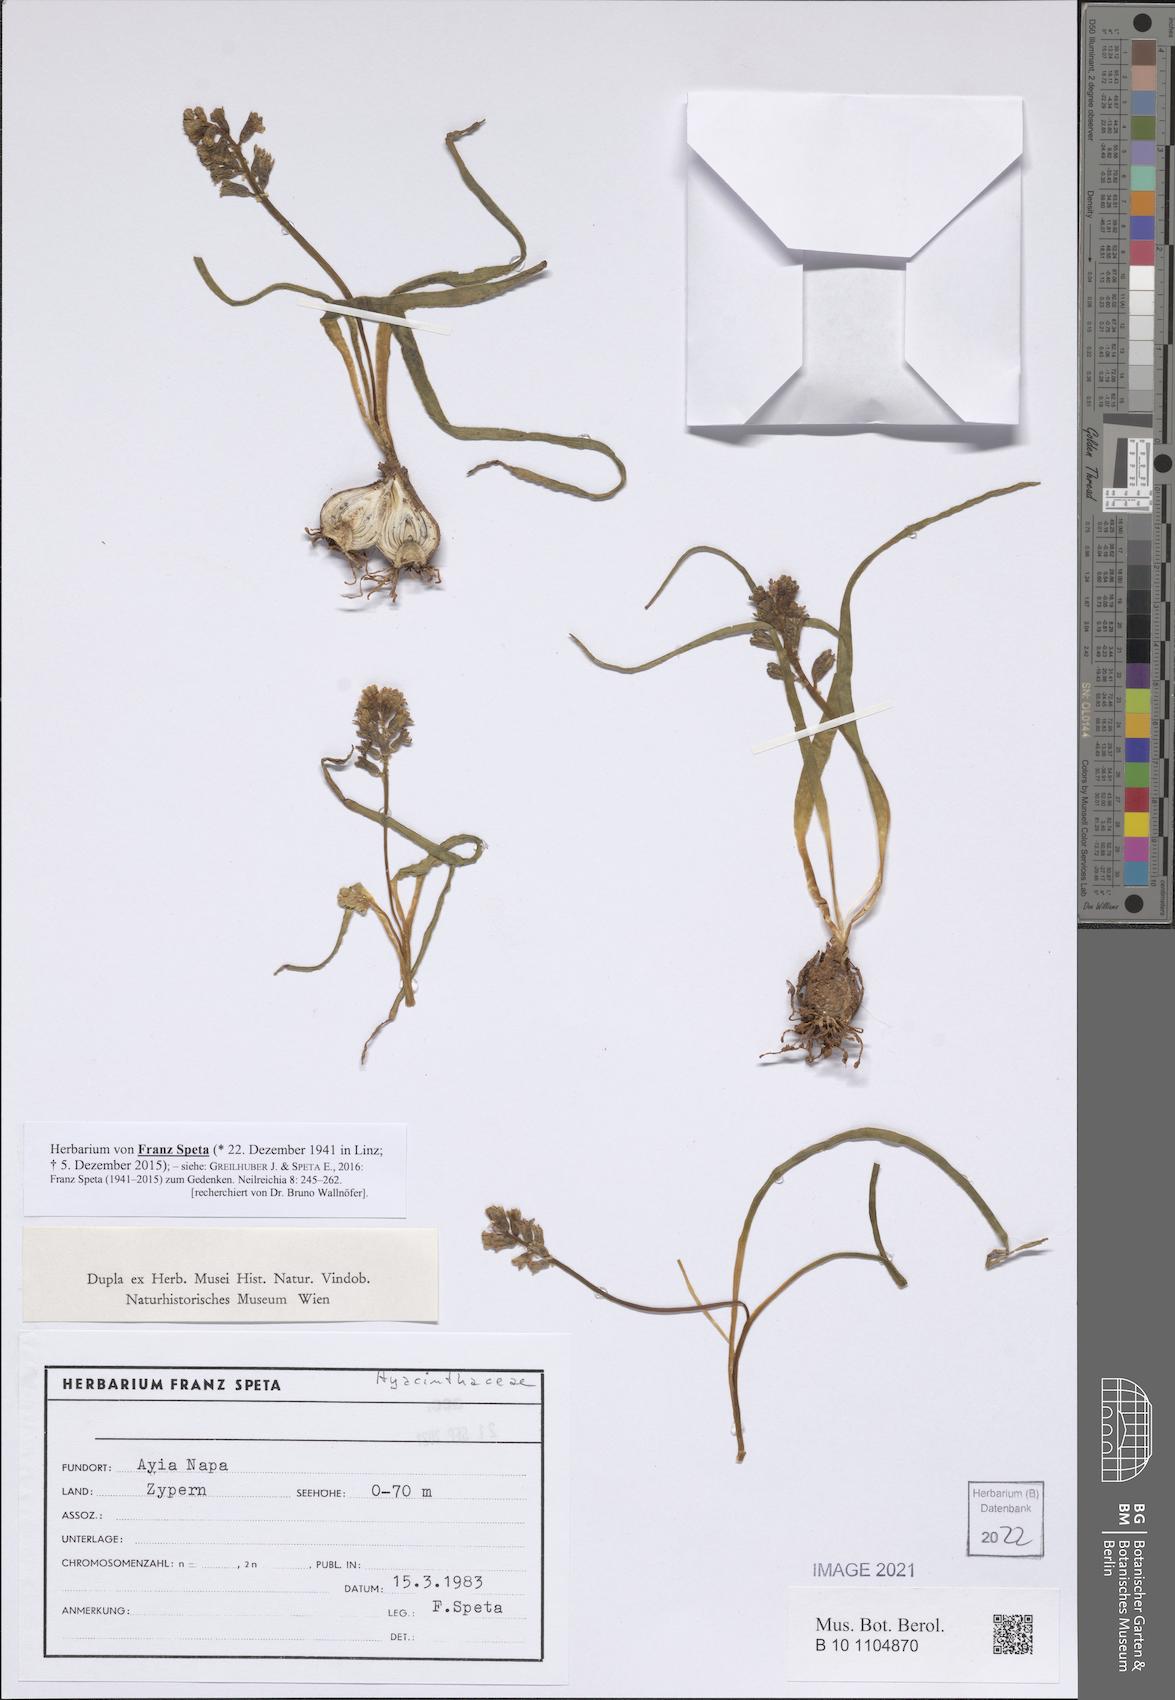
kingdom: Plantae
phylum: Tracheophyta
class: Liliopsida
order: Asparagales
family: Hyacinthaceae
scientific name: Hyacinthaceae
